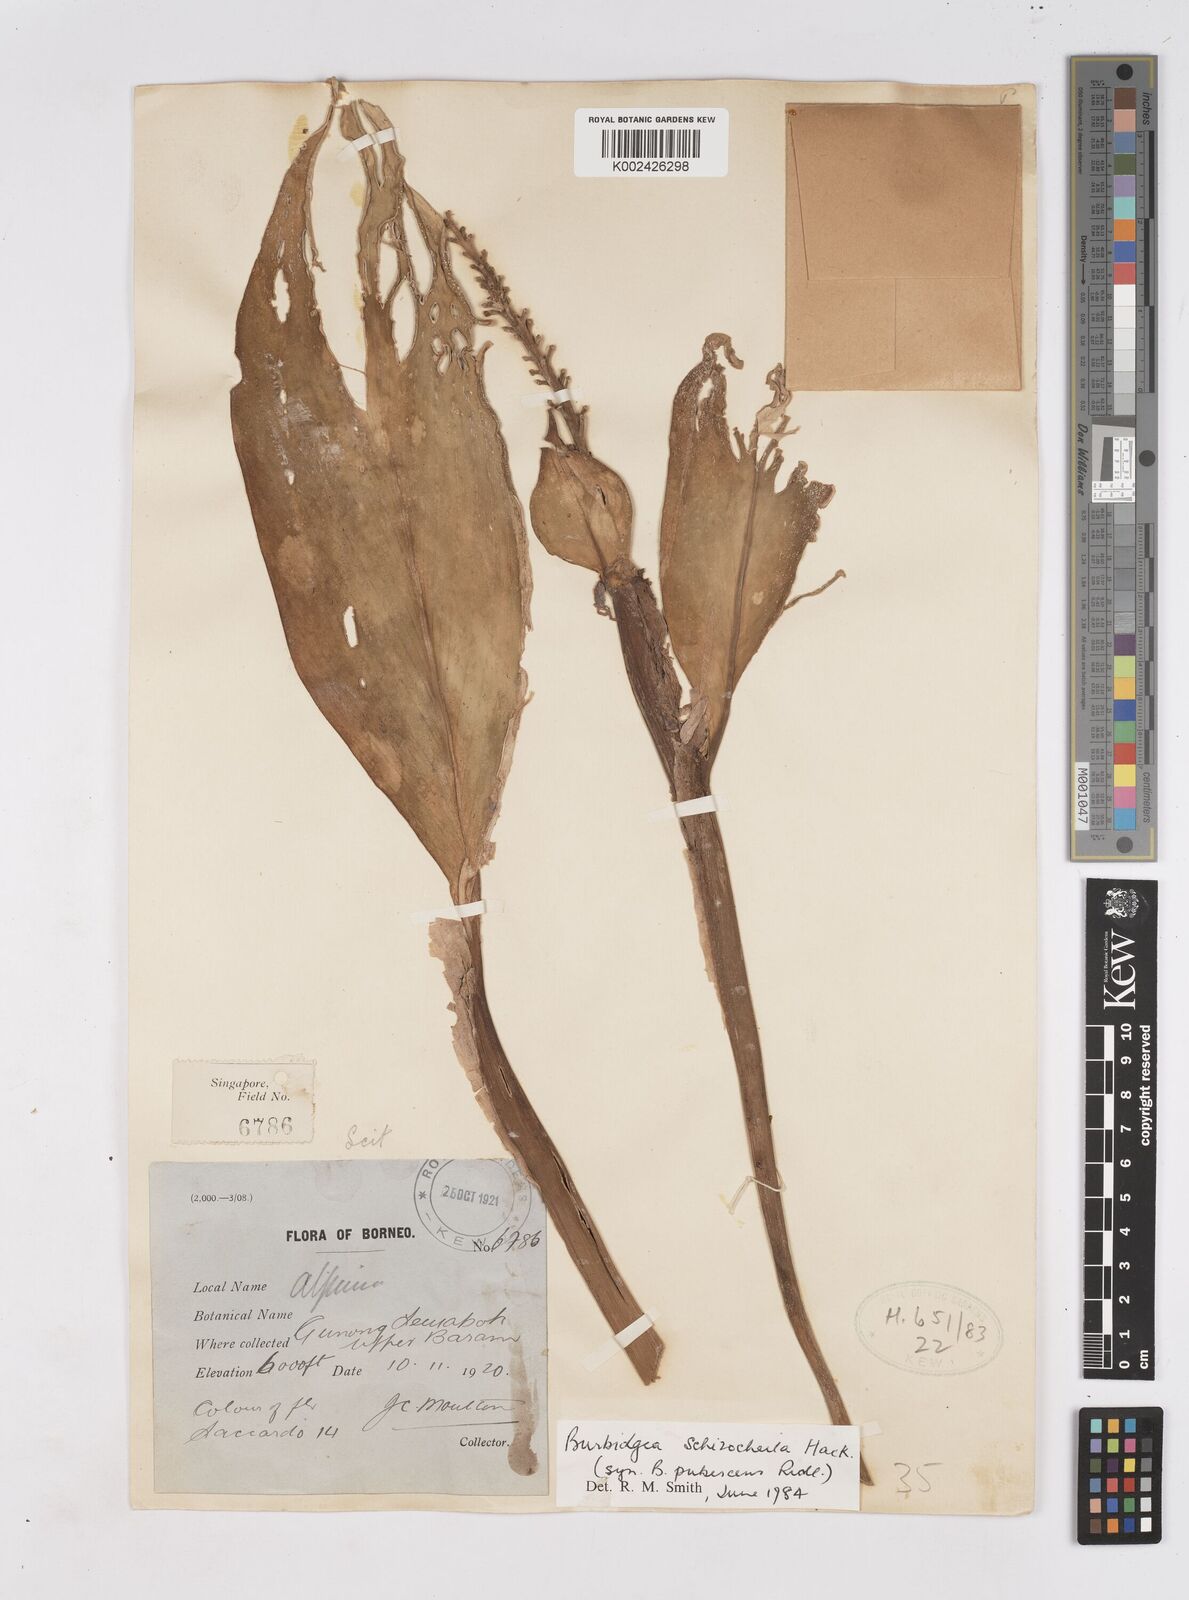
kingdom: Plantae
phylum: Tracheophyta
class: Liliopsida
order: Zingiberales
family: Zingiberaceae
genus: Burbidgea
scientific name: Burbidgea schizocheila
